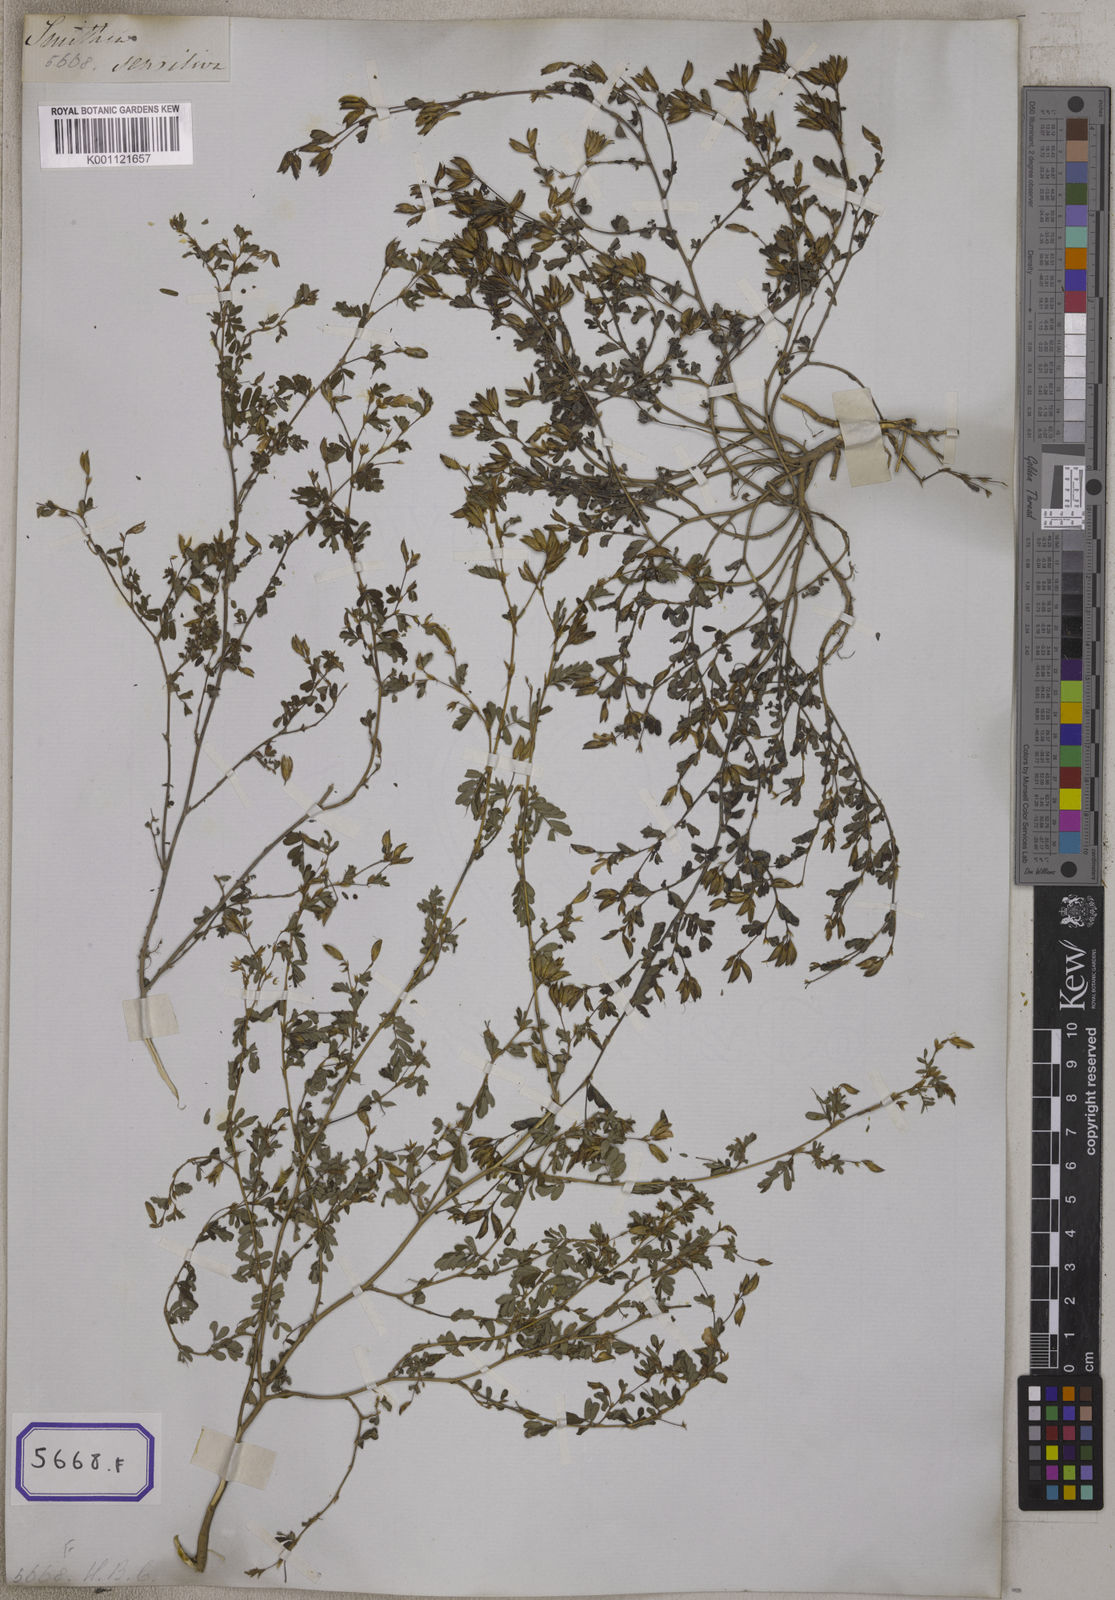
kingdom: Plantae
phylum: Tracheophyta
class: Magnoliopsida
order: Fabales
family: Fabaceae
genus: Smithia
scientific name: Smithia sensitiva
